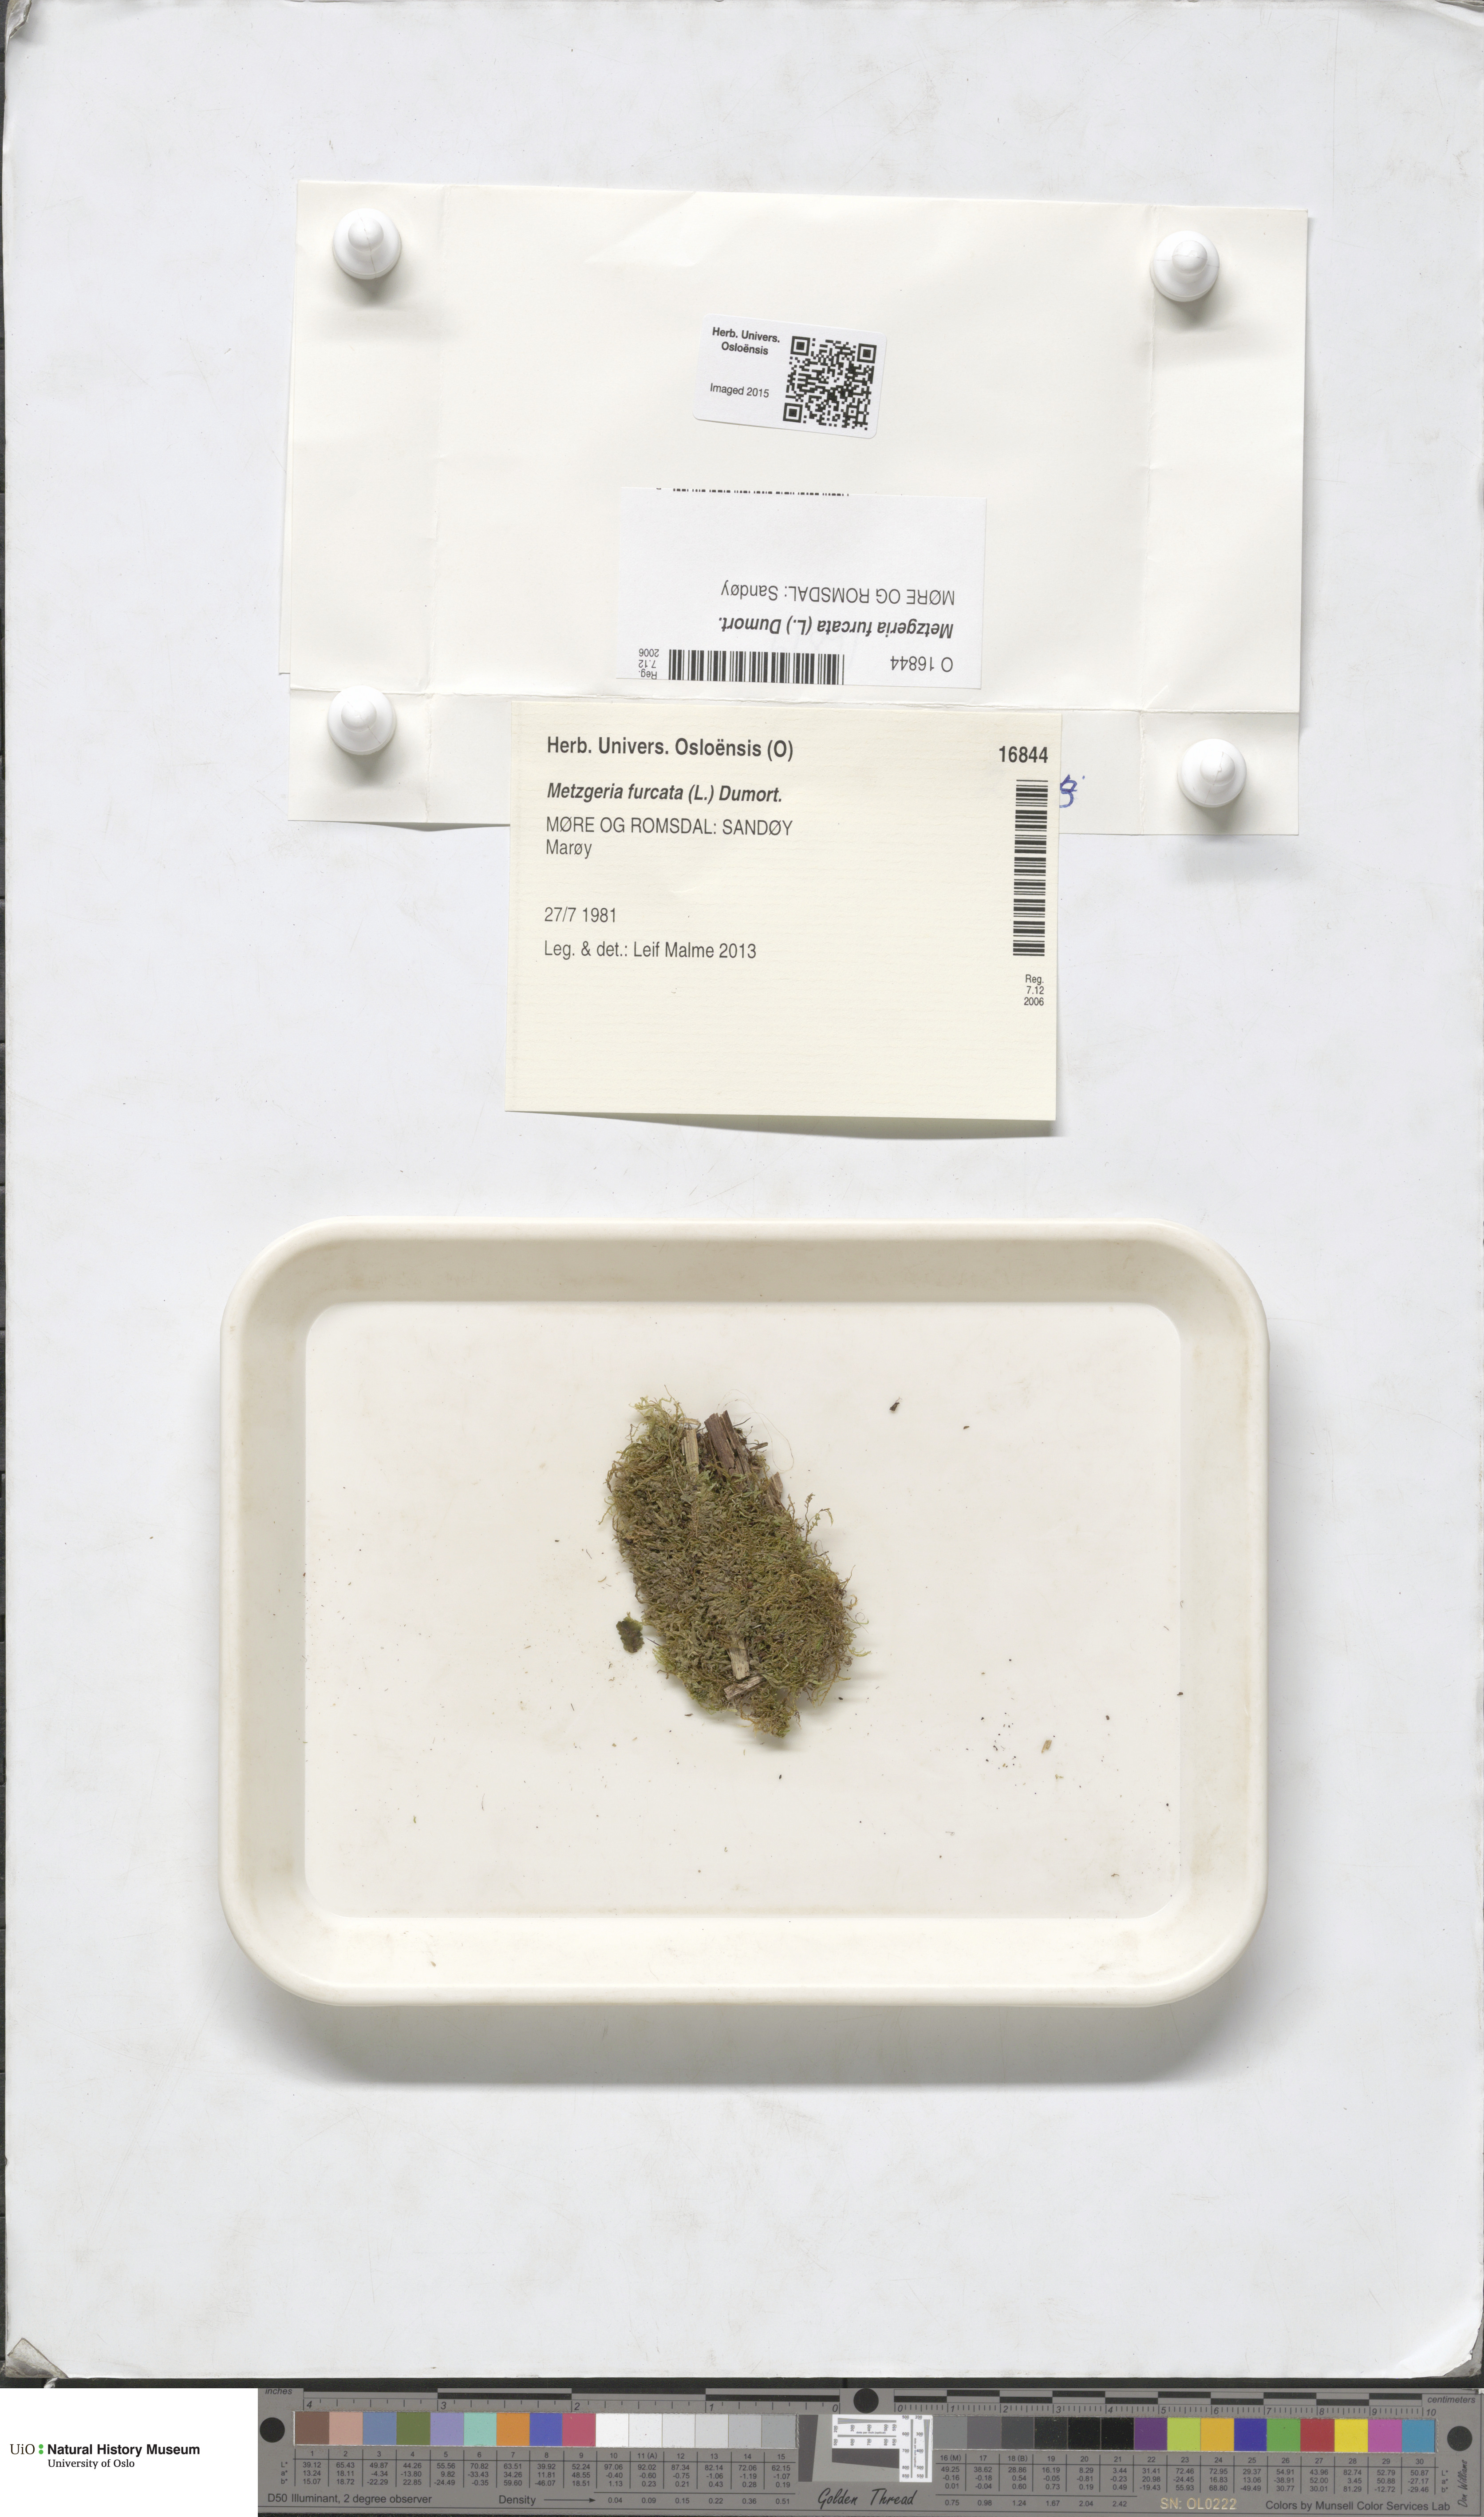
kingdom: Plantae
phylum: Marchantiophyta
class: Jungermanniopsida
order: Metzgeriales
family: Metzgeriaceae
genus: Metzgeria
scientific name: Metzgeria furcata
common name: Forked veilwort
